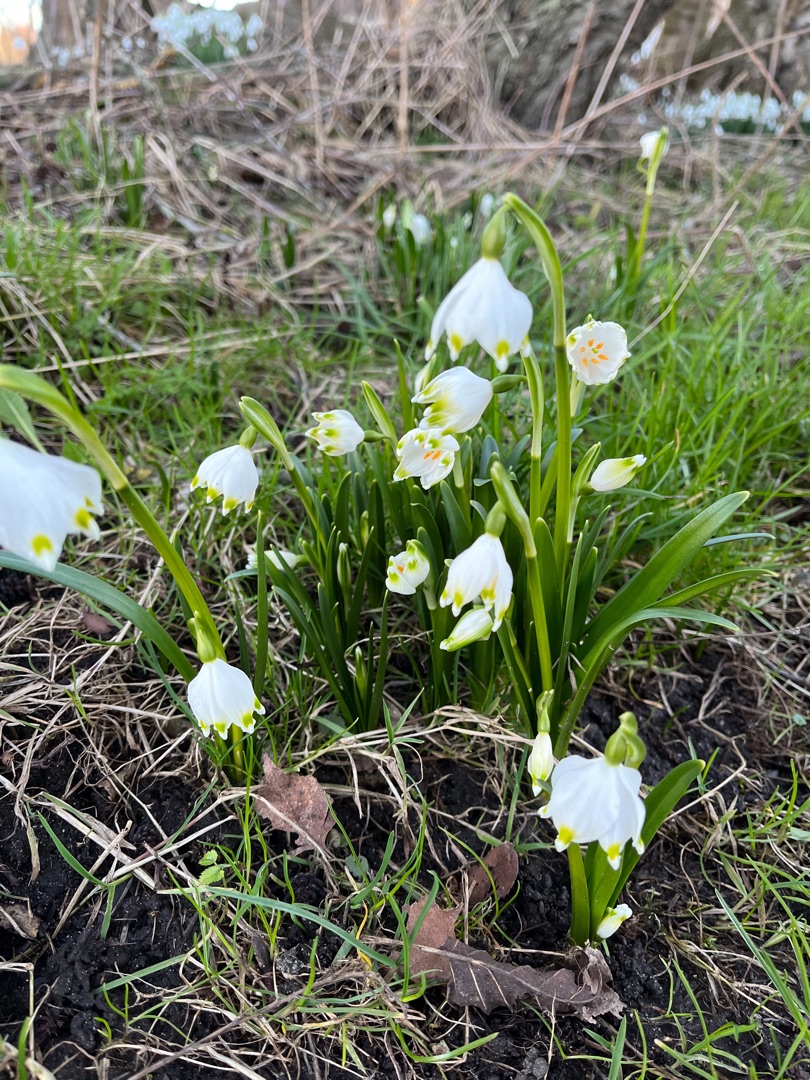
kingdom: Plantae
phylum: Tracheophyta
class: Liliopsida
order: Asparagales
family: Amaryllidaceae
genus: Leucojum
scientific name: Leucojum vernum
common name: Dorthealilje
